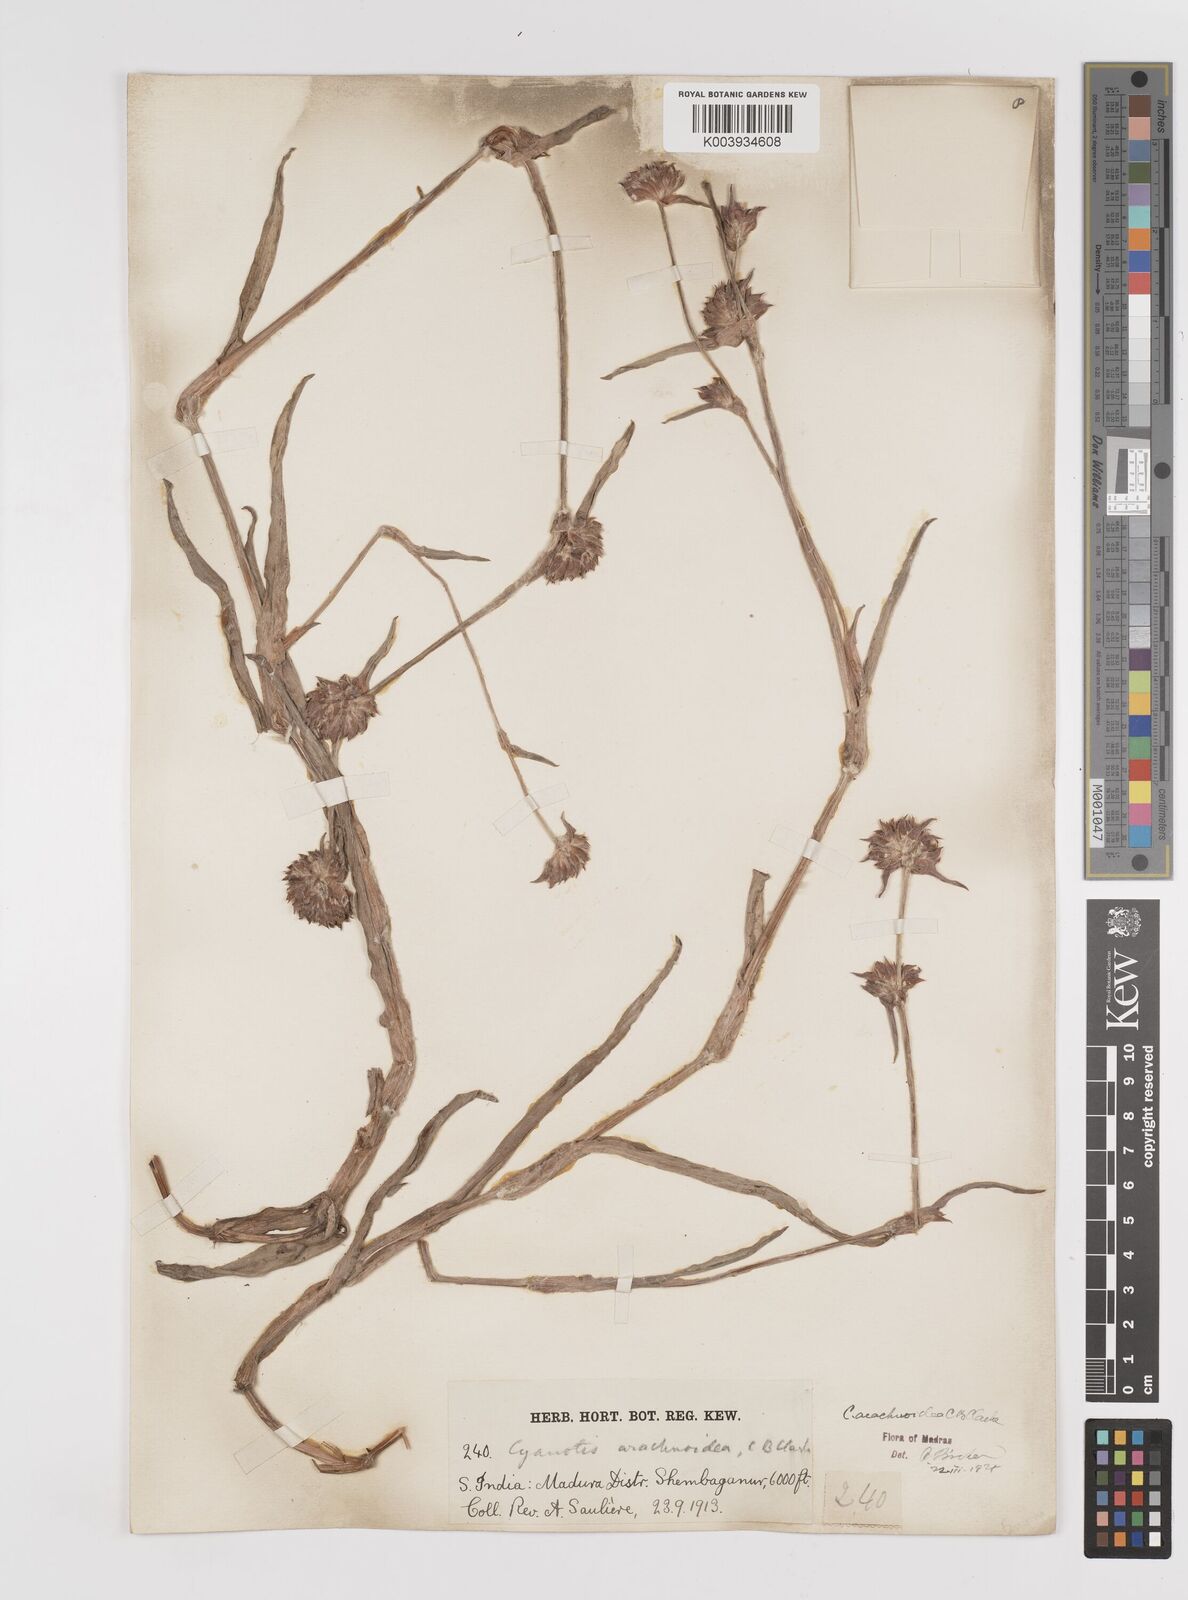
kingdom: Plantae
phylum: Tracheophyta
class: Liliopsida
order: Commelinales
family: Commelinaceae
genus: Cyanotis
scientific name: Cyanotis arachnoidea
